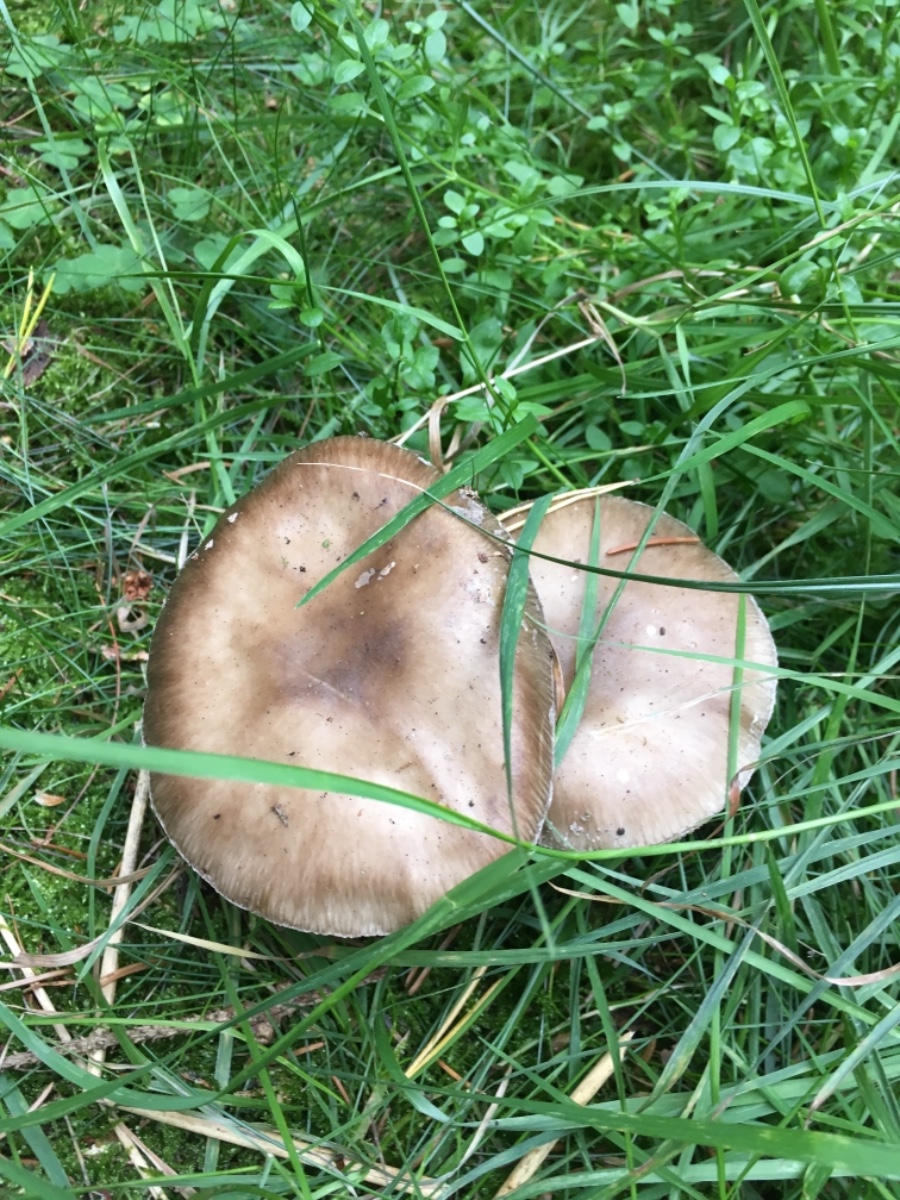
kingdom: Fungi
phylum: Basidiomycota
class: Agaricomycetes
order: Agaricales
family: Amanitaceae
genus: Amanita
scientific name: Amanita rubescens
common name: rødmende fluesvamp
